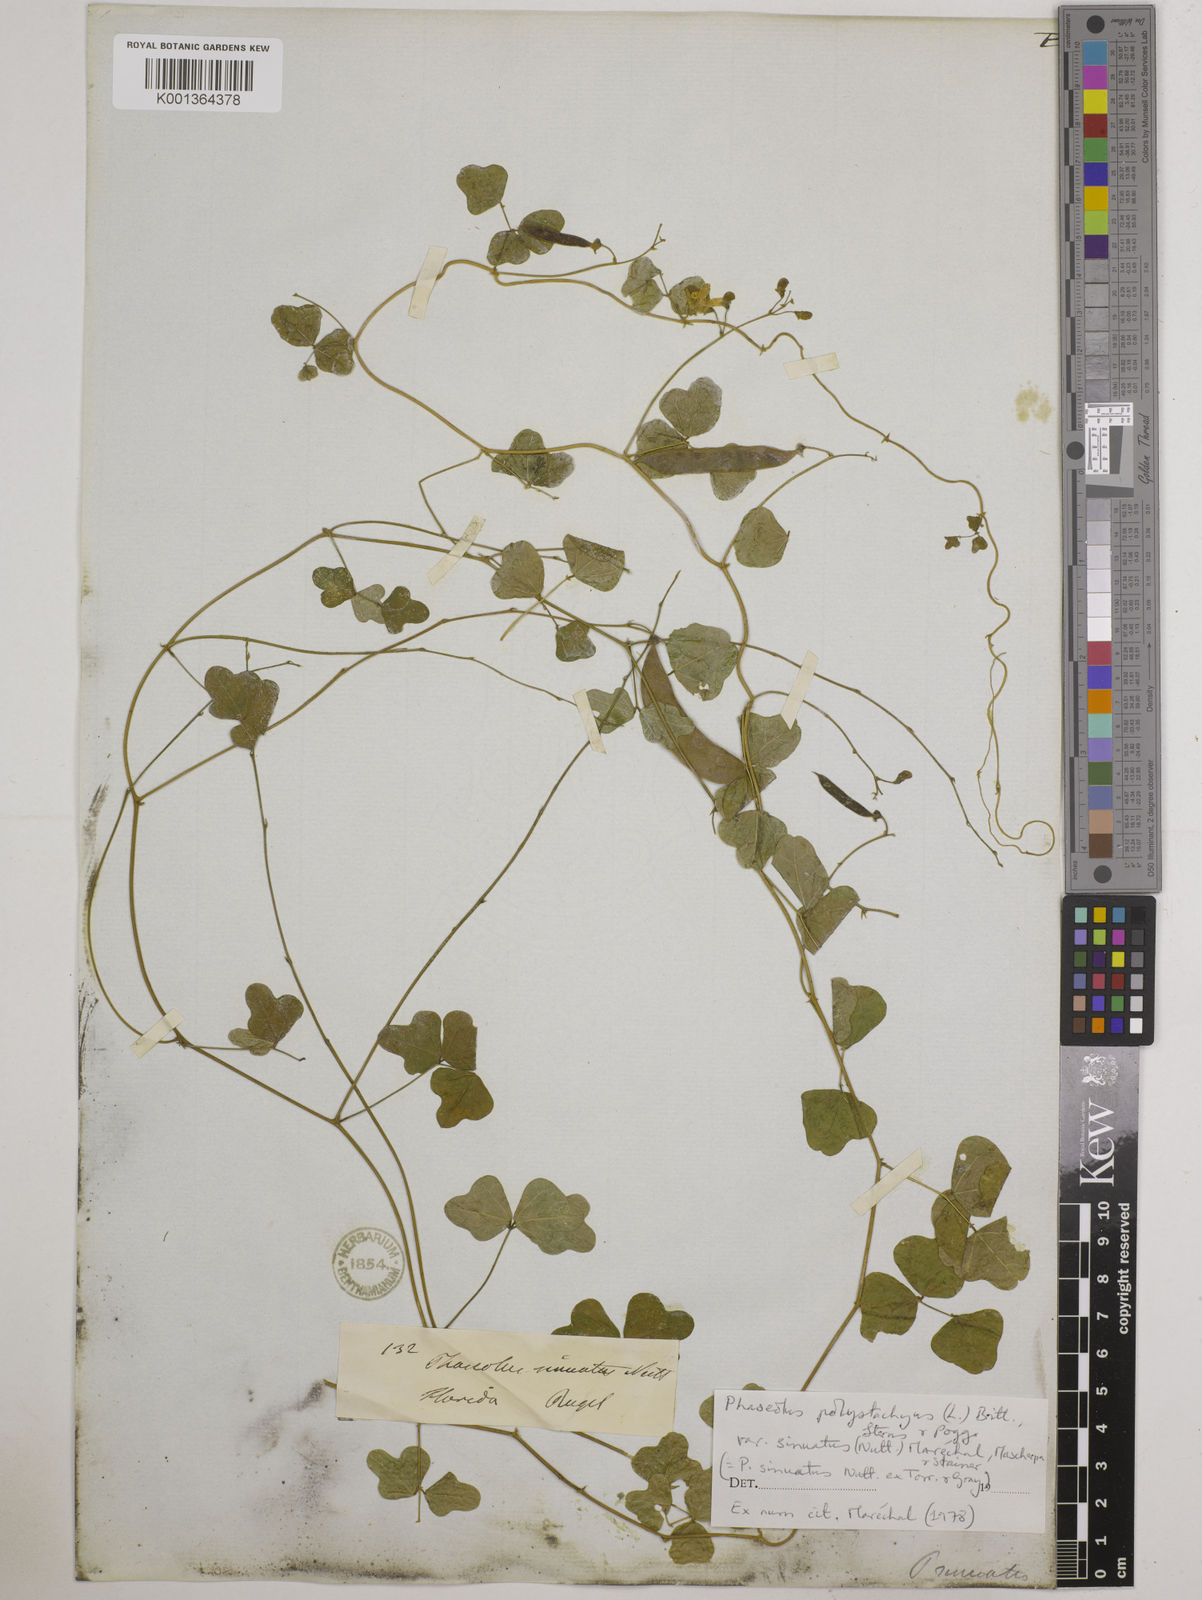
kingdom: Plantae
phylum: Tracheophyta
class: Magnoliopsida
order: Fabales
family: Fabaceae
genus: Phaseolus
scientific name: Phaseolus
